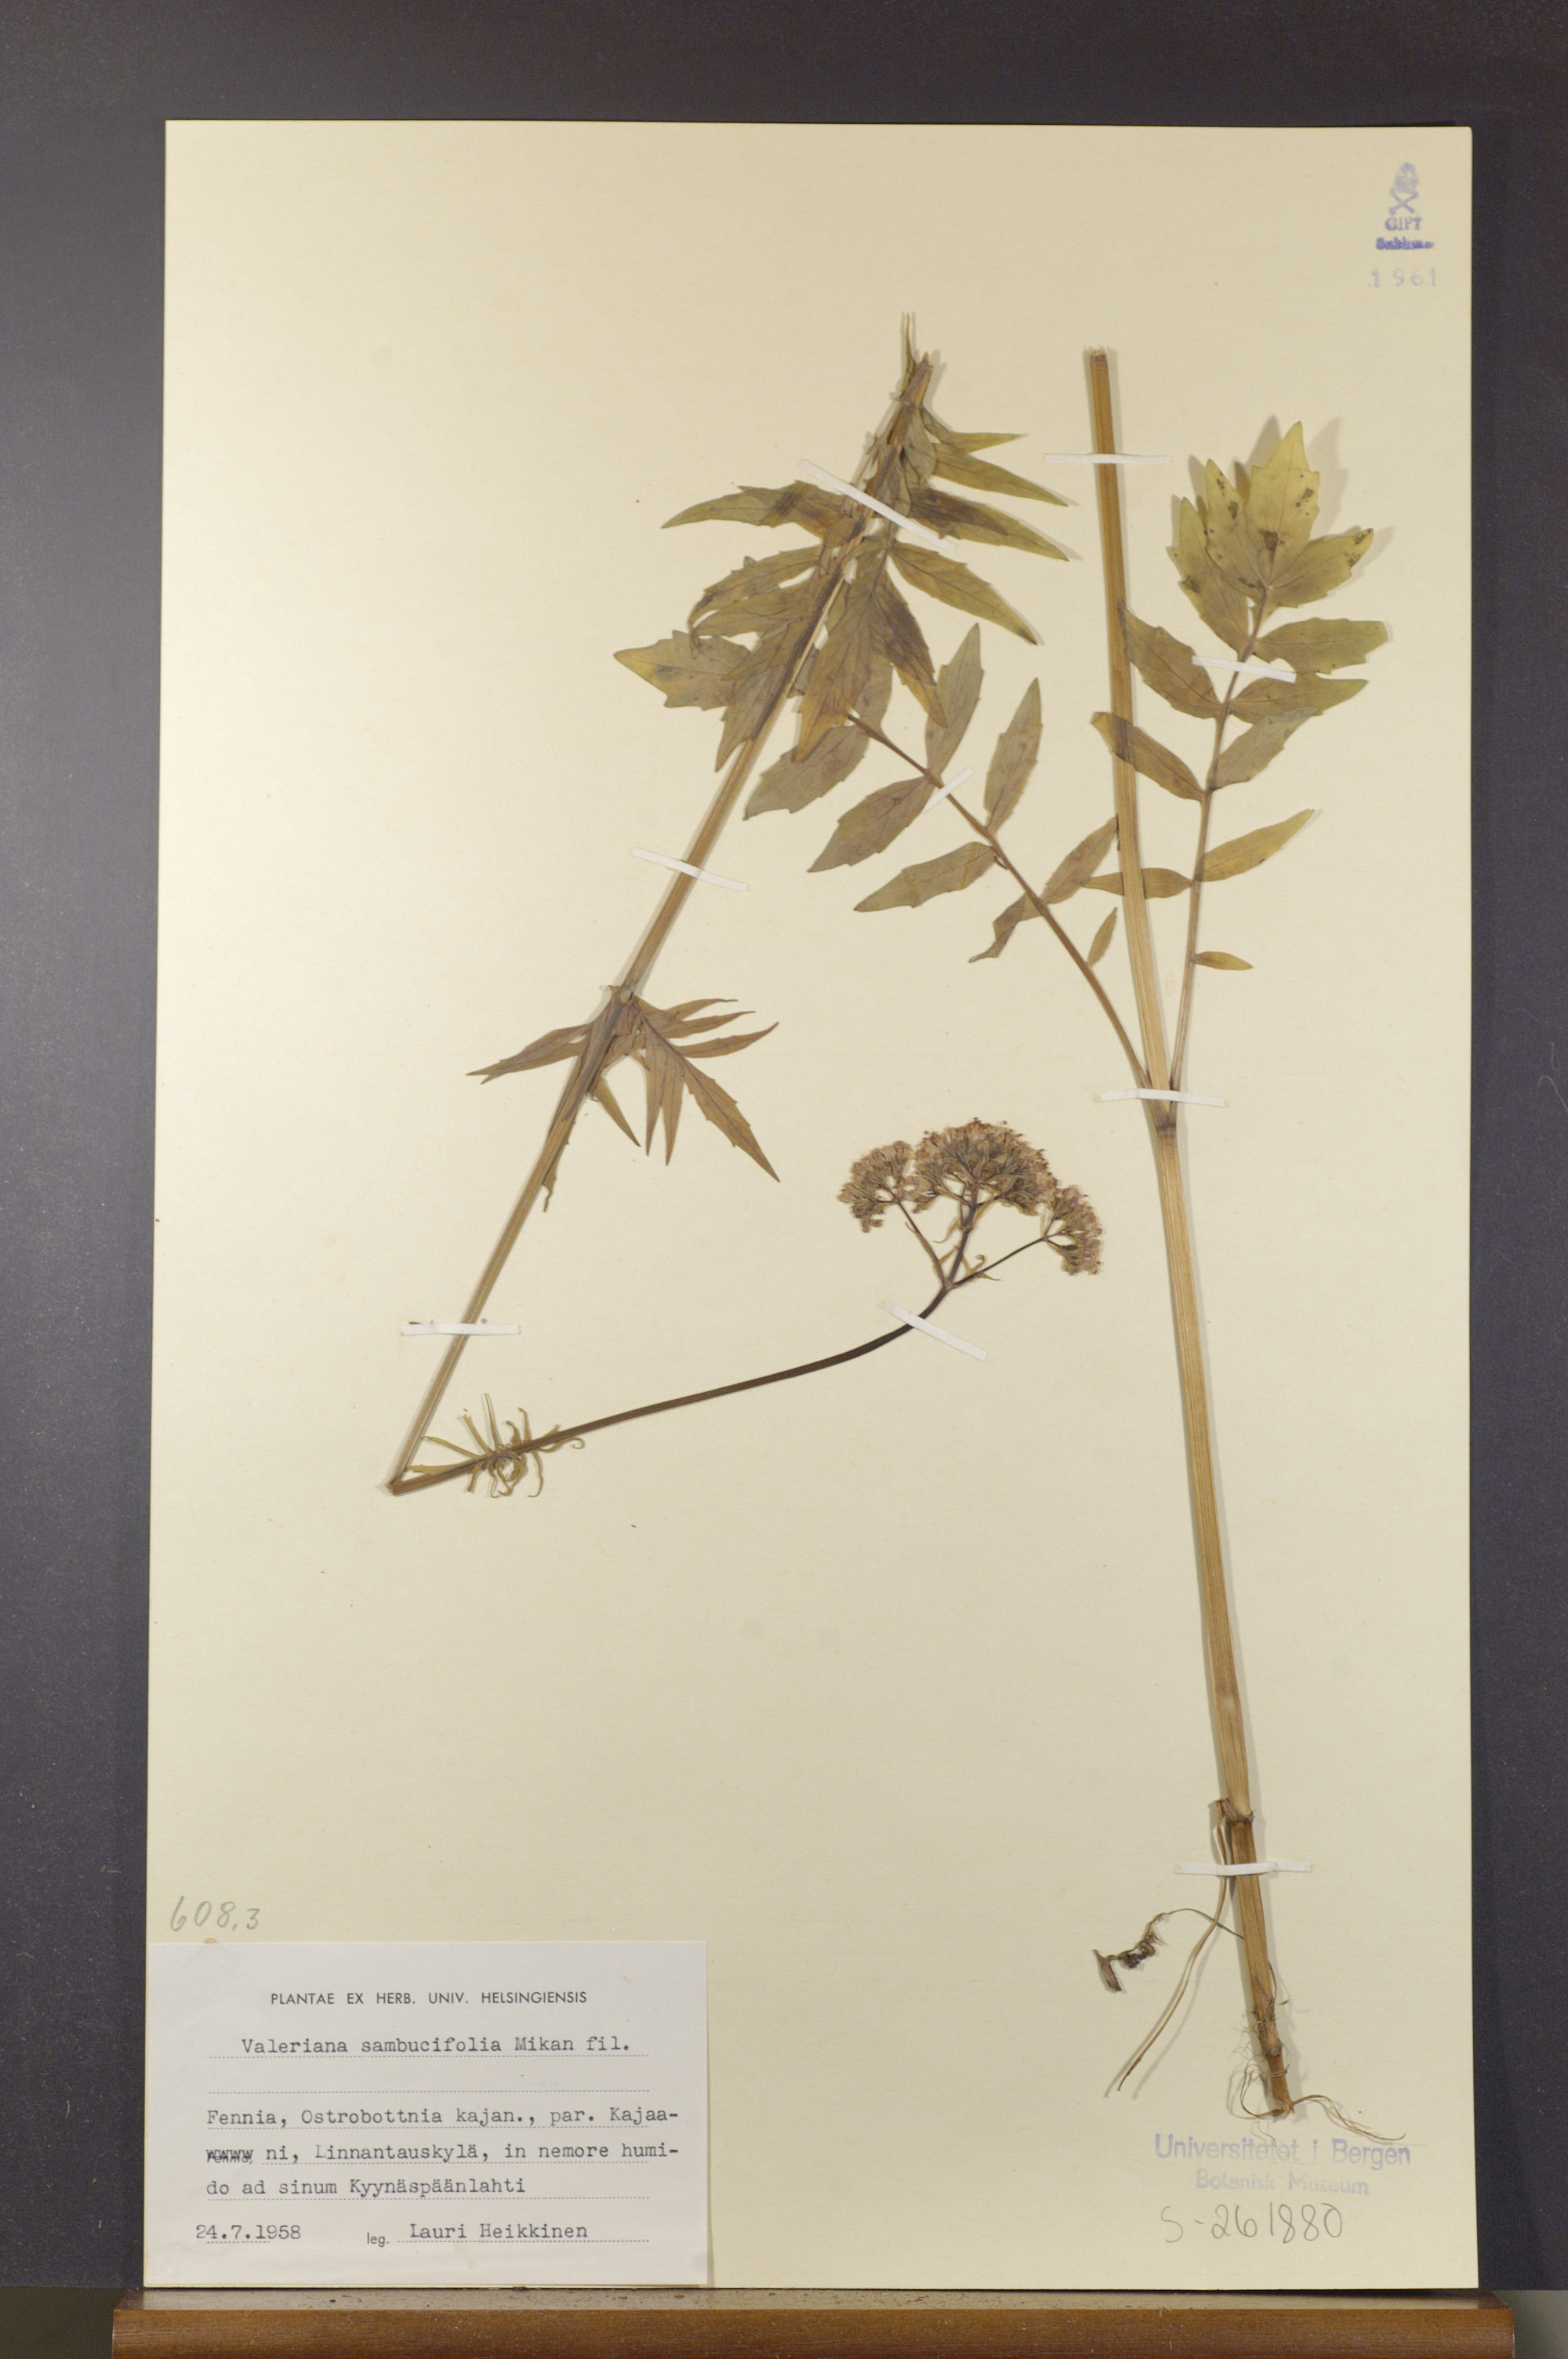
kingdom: Plantae
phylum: Tracheophyta
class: Magnoliopsida
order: Dipsacales
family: Caprifoliaceae
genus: Valeriana
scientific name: Valeriana excelsa
